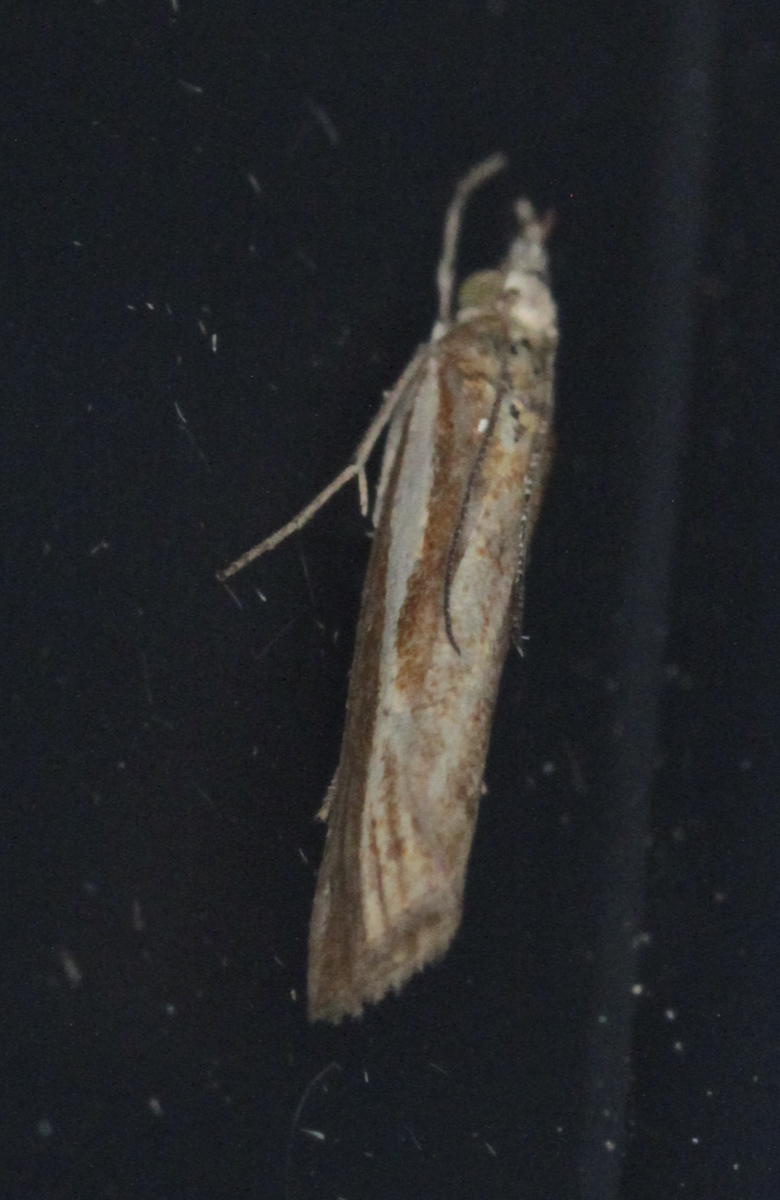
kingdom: Animalia
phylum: Arthropoda
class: Insecta
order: Lepidoptera
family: Crambidae
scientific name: Crambidae
